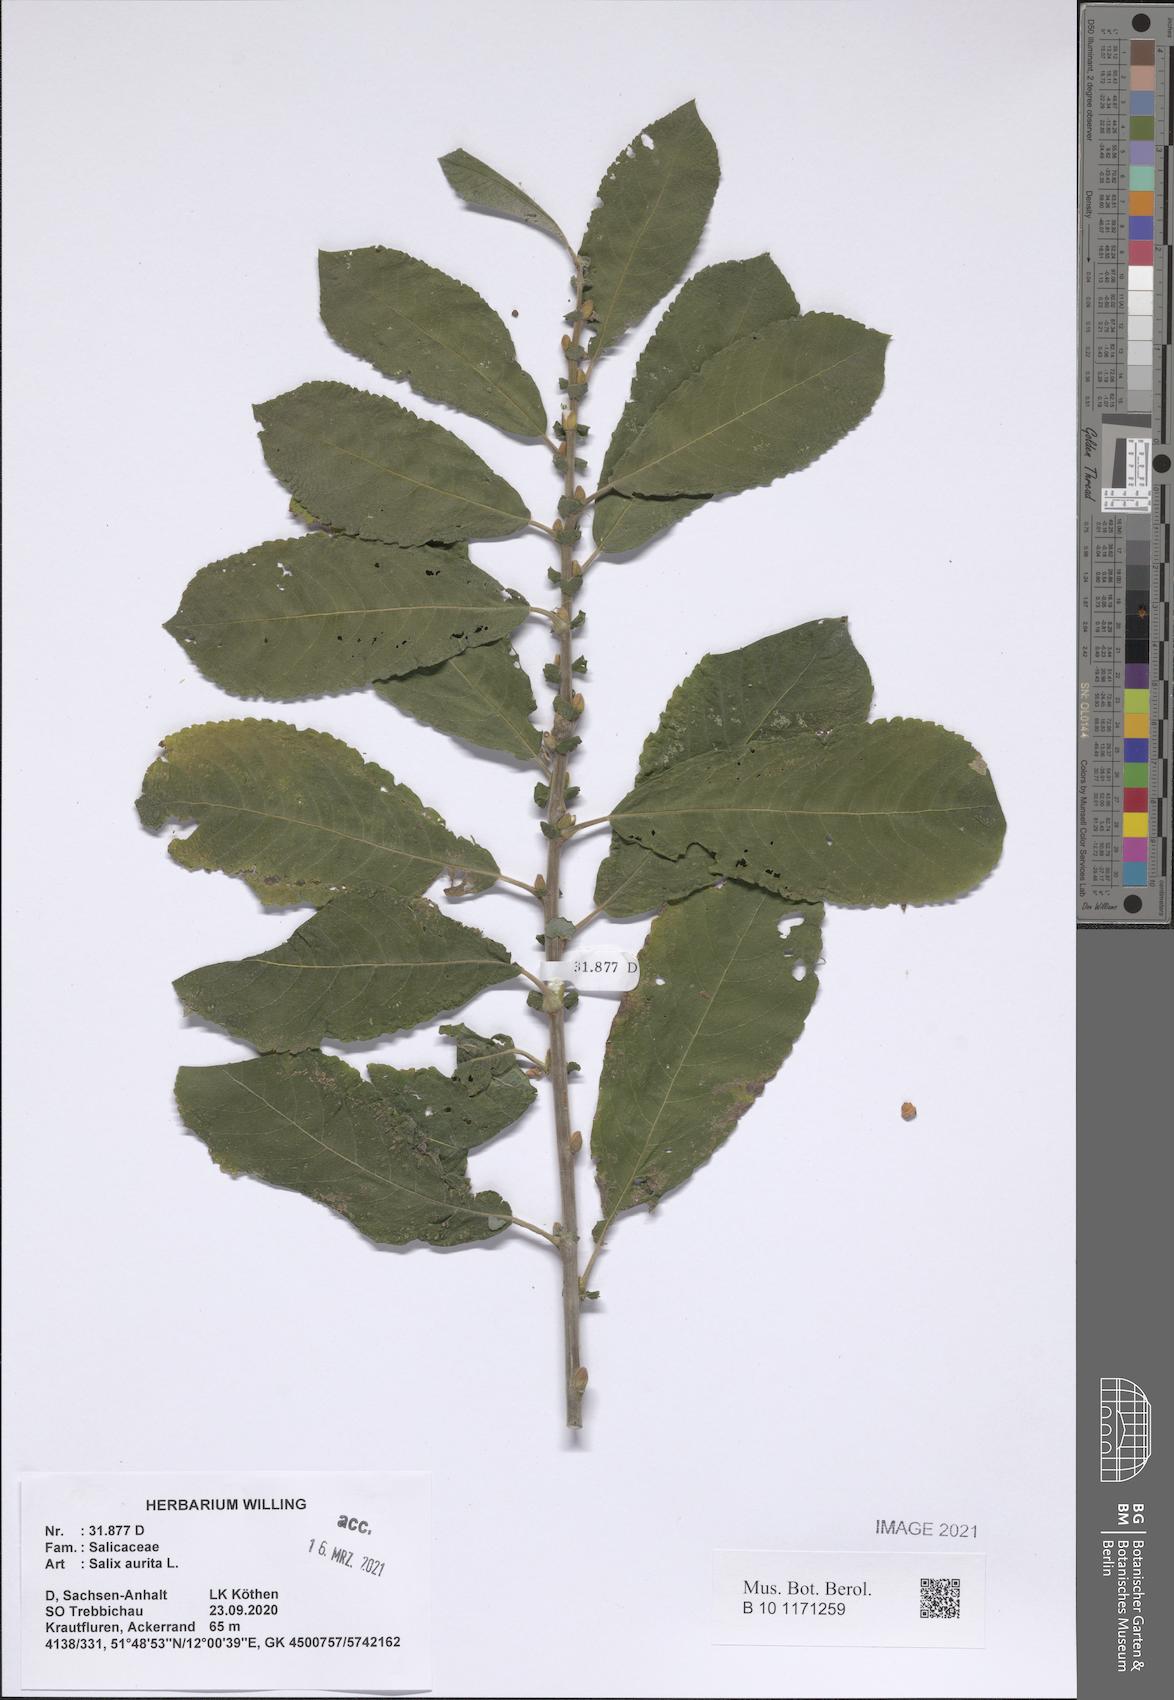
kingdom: Plantae
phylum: Tracheophyta
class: Magnoliopsida
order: Malpighiales
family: Salicaceae
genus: Salix
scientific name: Salix aurita
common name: Eared willow
